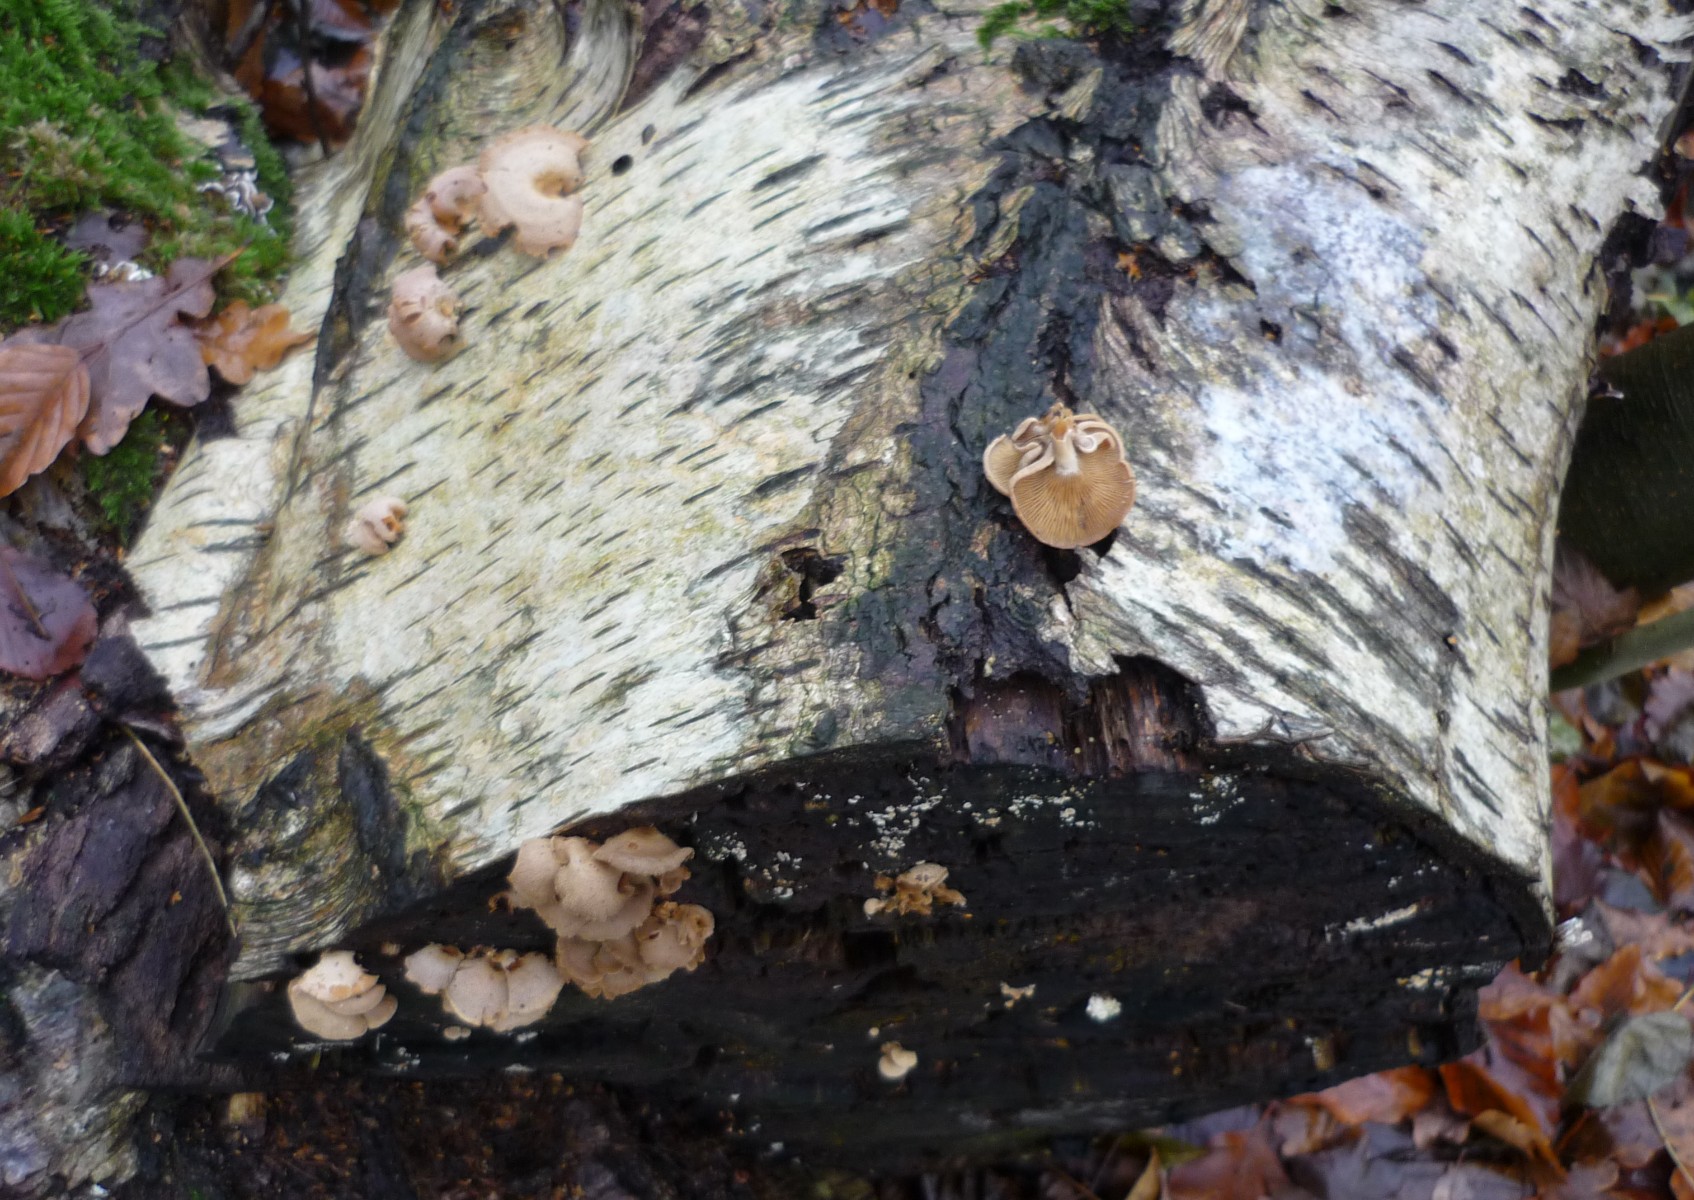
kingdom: Fungi
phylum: Basidiomycota
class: Agaricomycetes
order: Agaricales
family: Mycenaceae
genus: Panellus
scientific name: Panellus stipticus
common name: kliddet epaulethat
